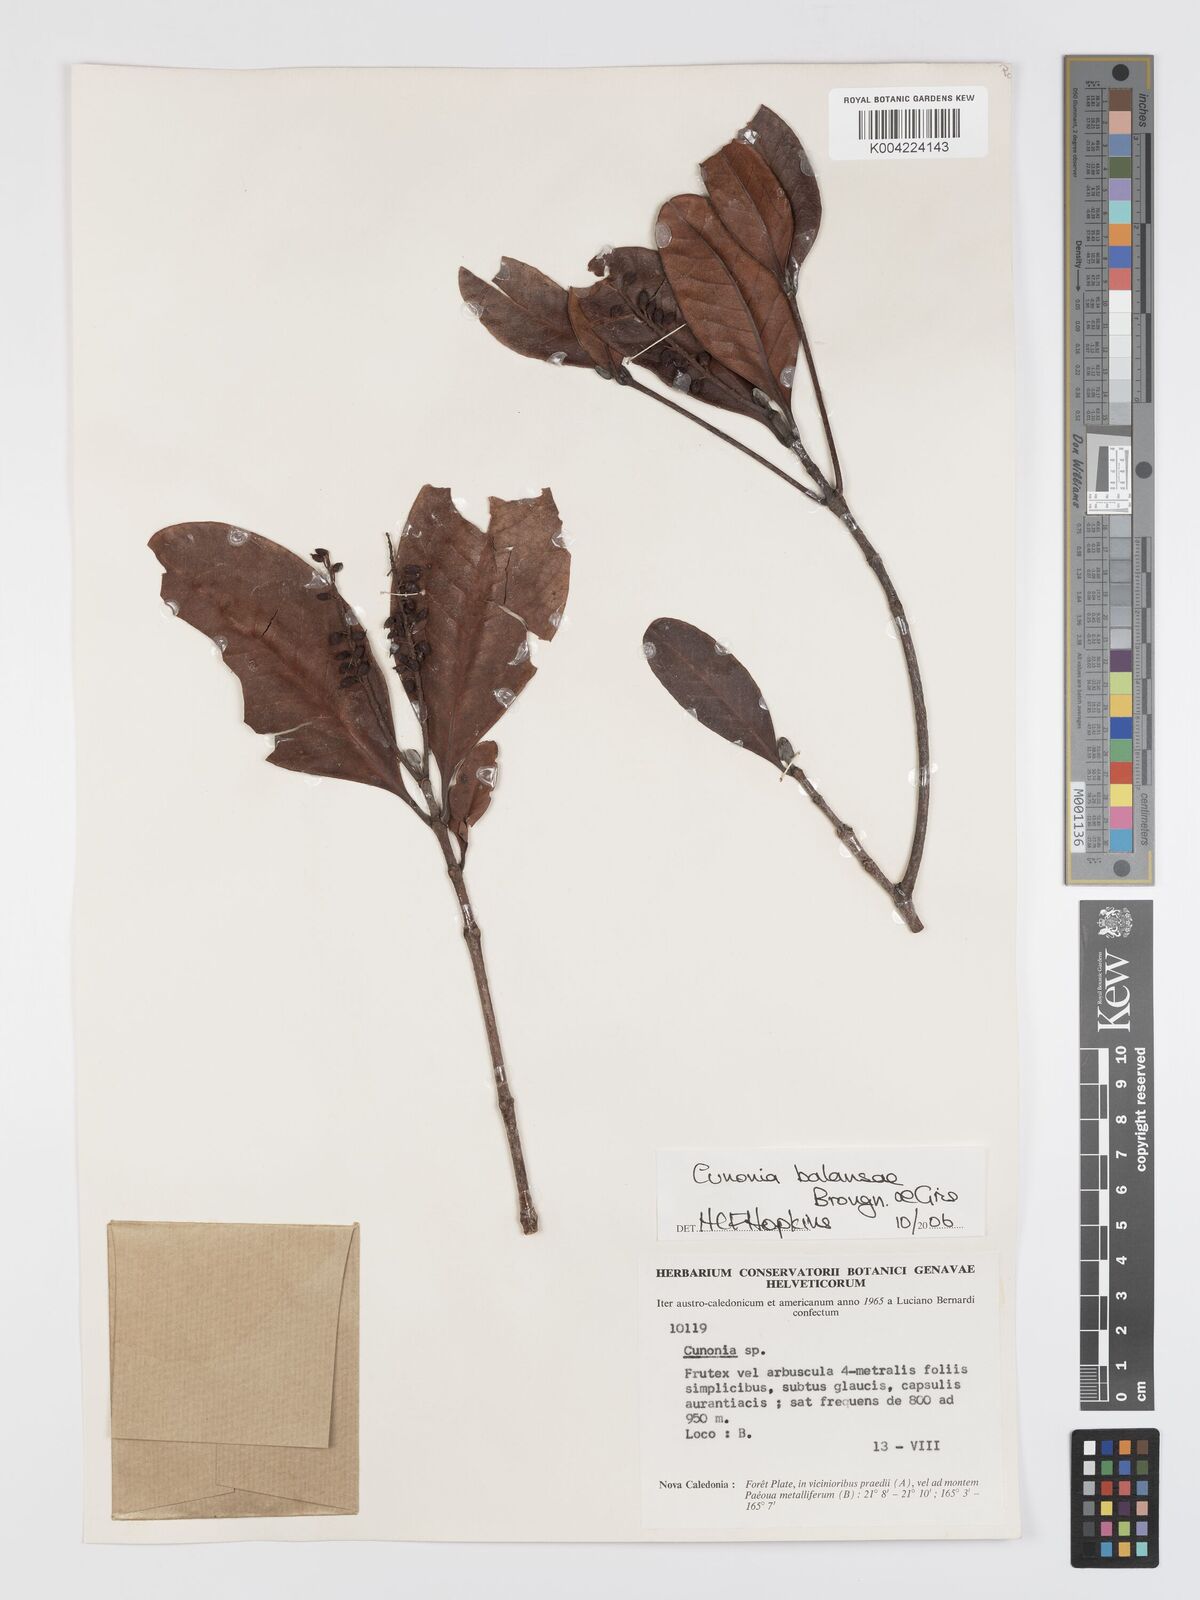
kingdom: Plantae
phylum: Tracheophyta
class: Magnoliopsida
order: Oxalidales
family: Cunoniaceae
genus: Cunonia
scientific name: Cunonia balansae
